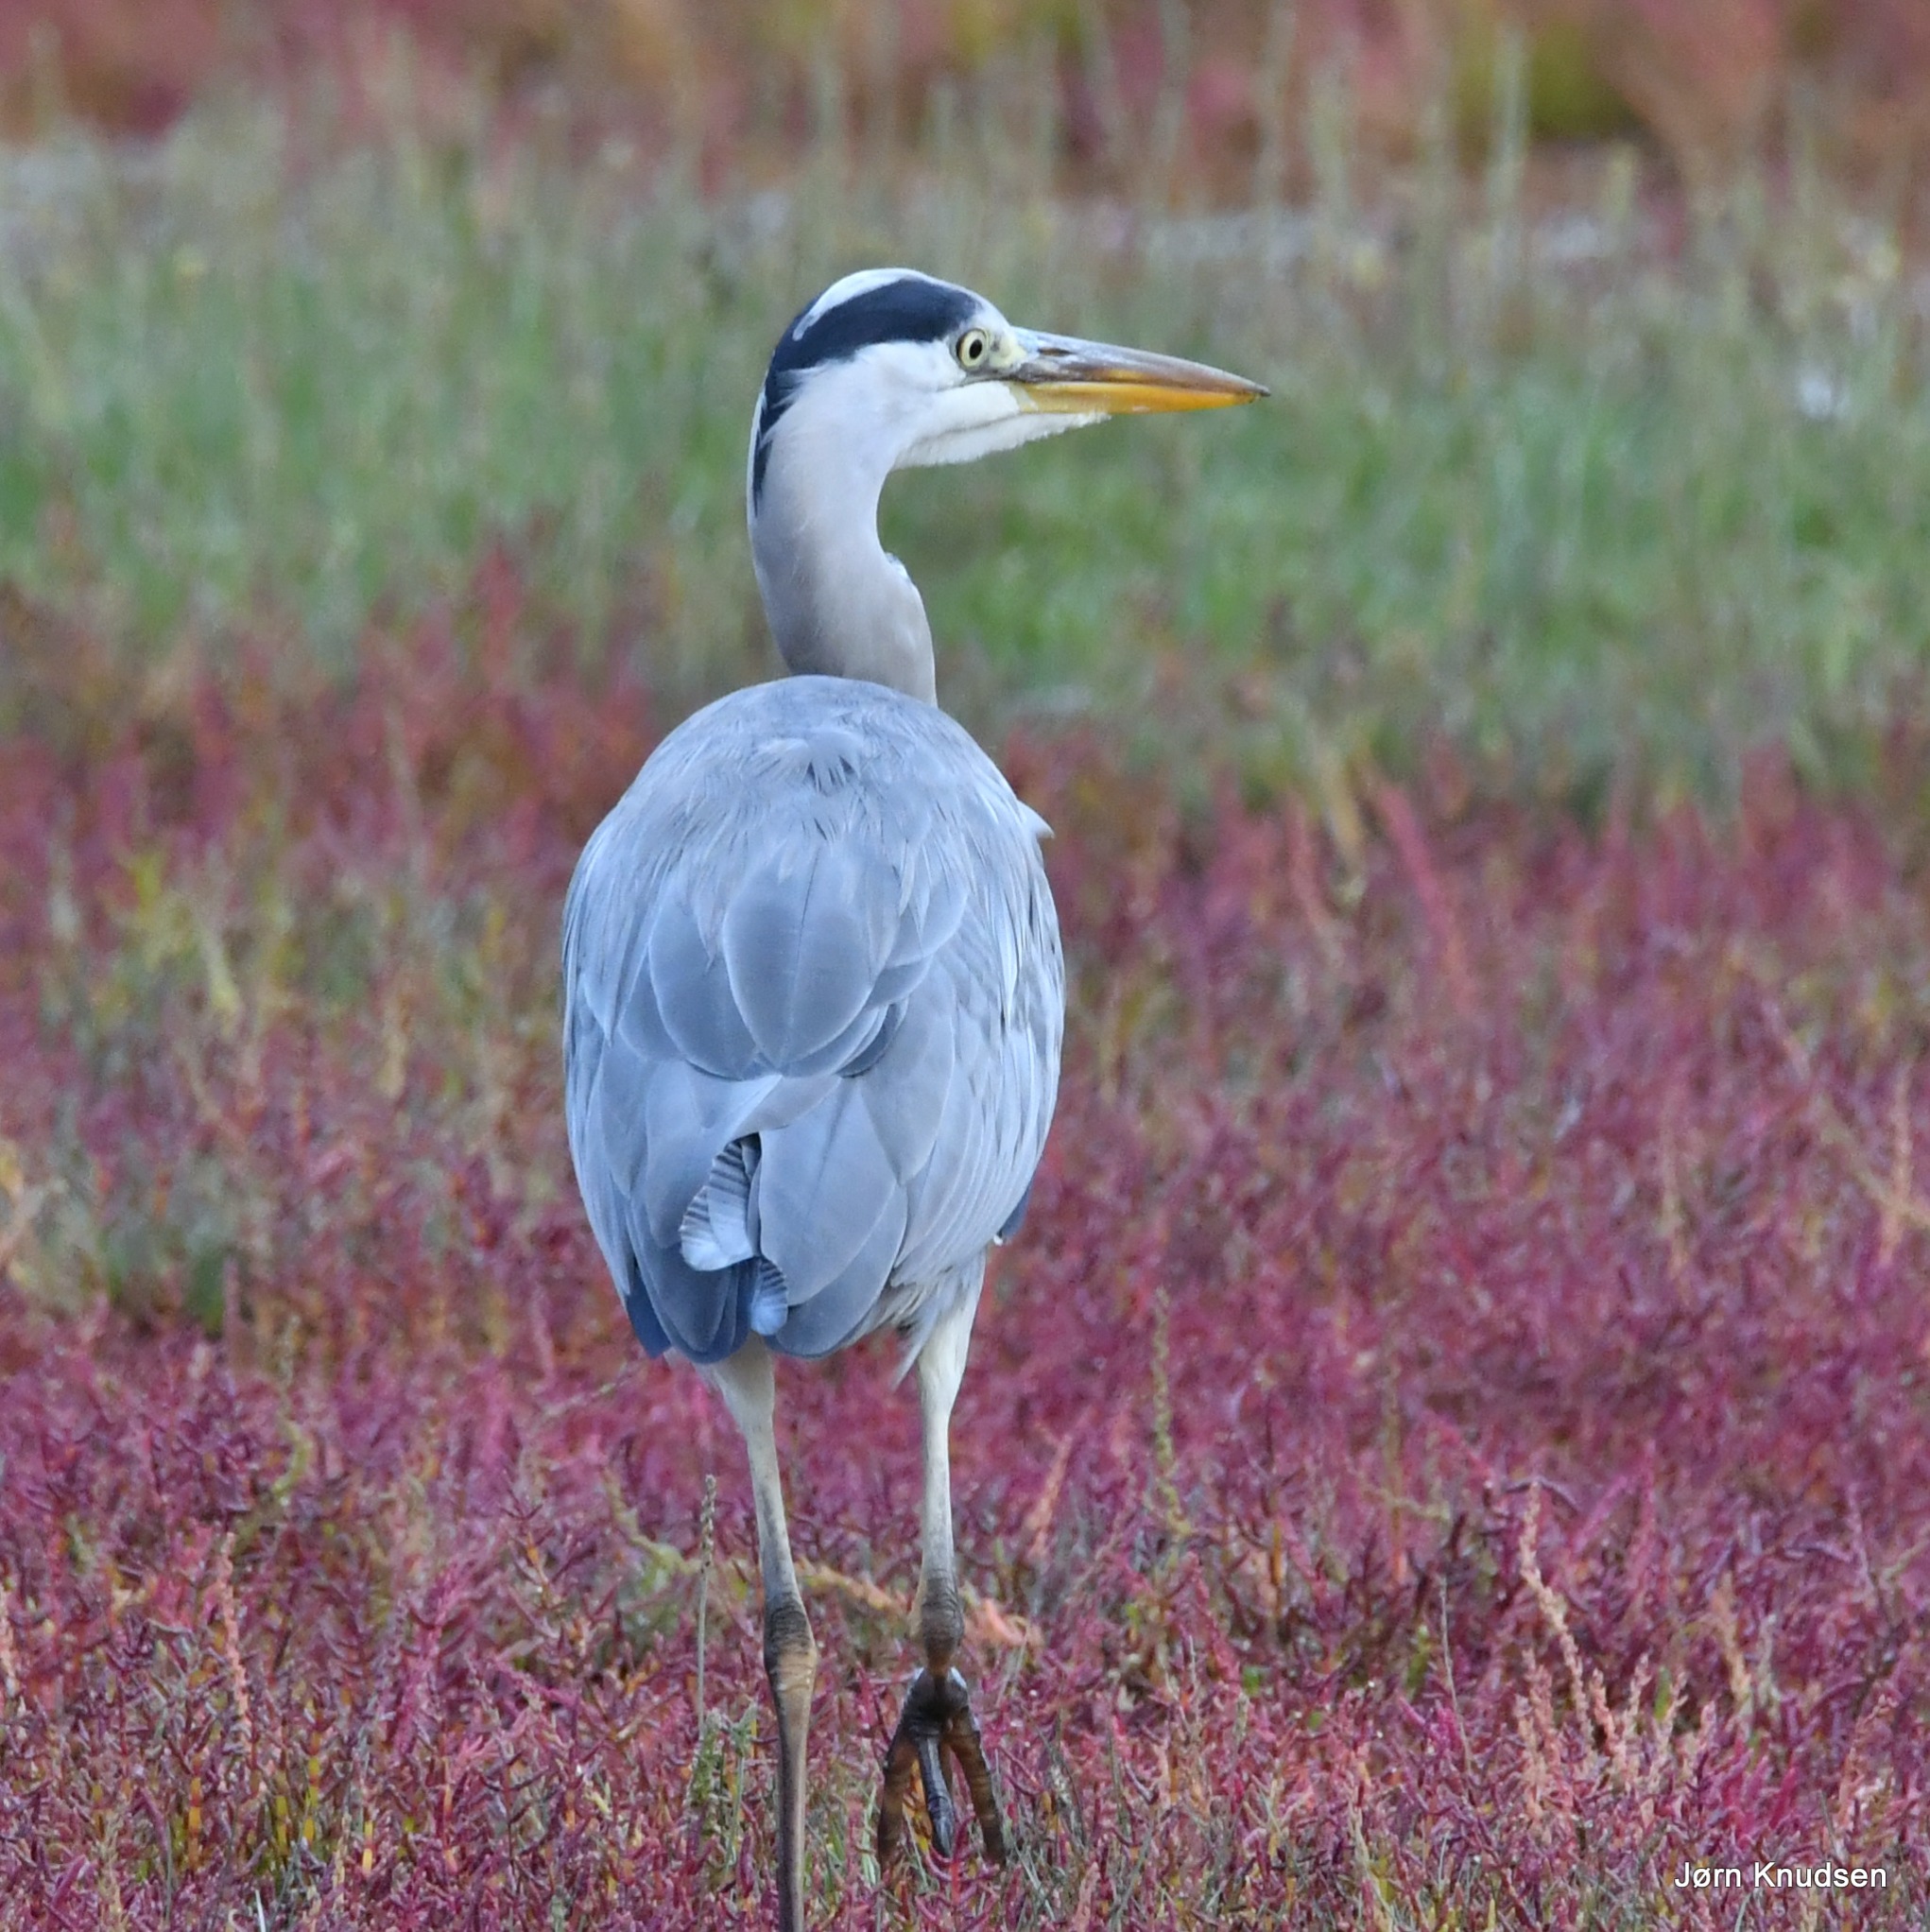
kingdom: Animalia
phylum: Chordata
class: Aves
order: Pelecaniformes
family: Ardeidae
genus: Ardea
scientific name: Ardea cinerea
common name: Fiskehejre
